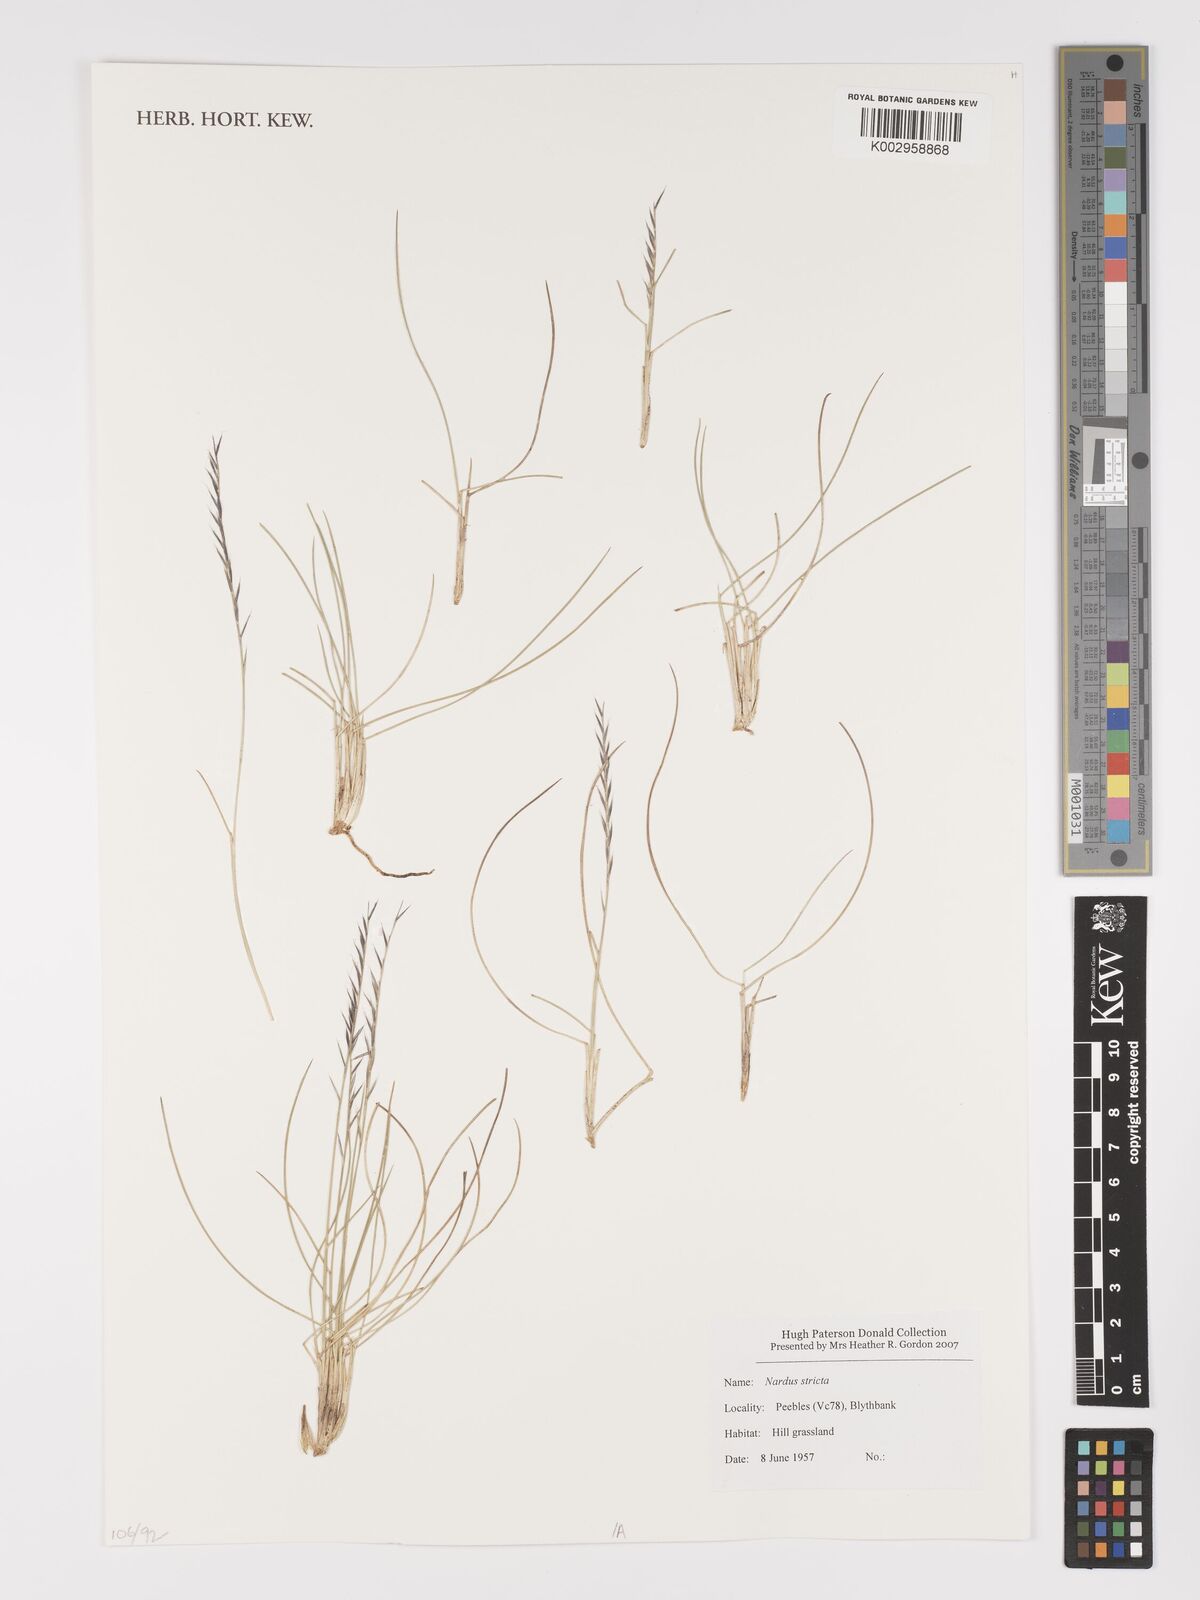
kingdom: Plantae
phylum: Tracheophyta
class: Liliopsida
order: Poales
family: Poaceae
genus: Nardus
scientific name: Nardus stricta
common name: Mat-grass
